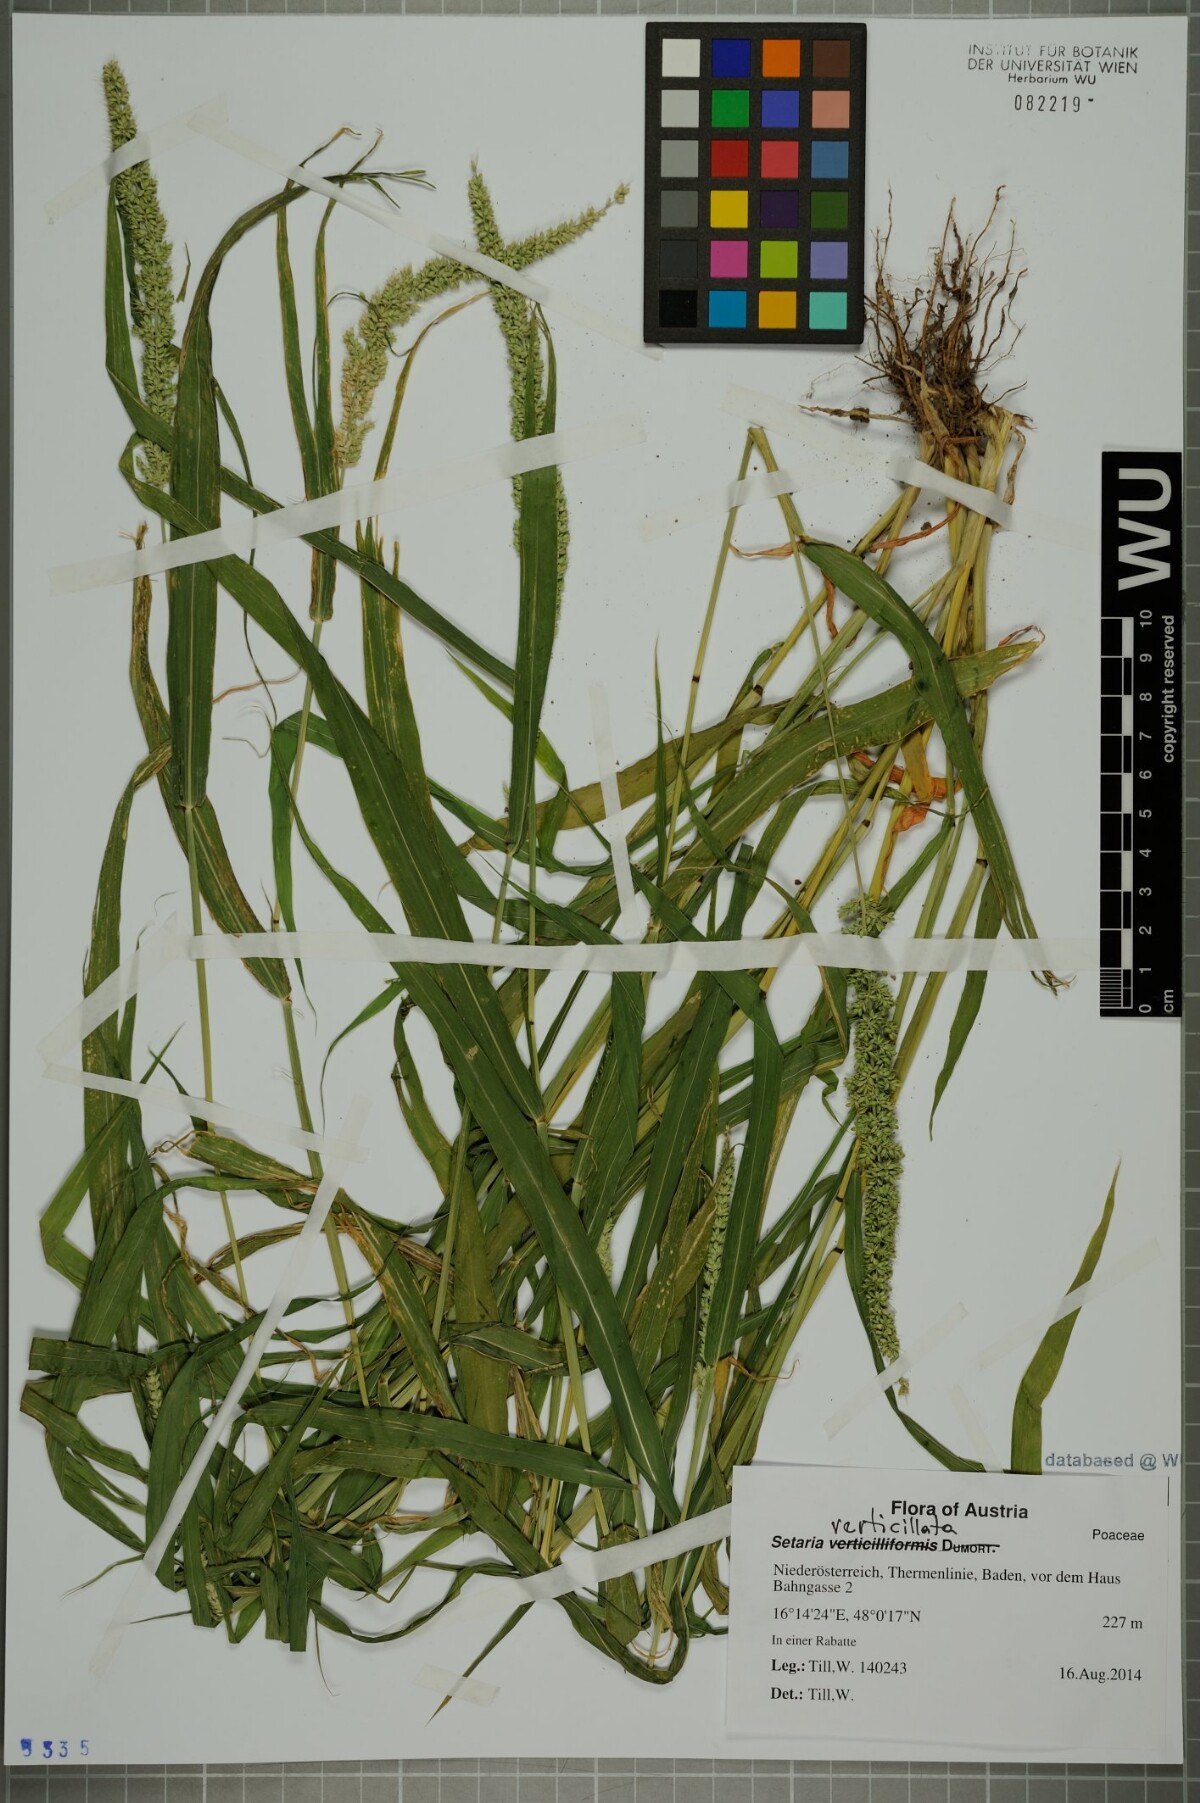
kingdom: Plantae
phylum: Tracheophyta
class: Liliopsida
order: Poales
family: Poaceae
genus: Setaria
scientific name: Setaria verticillata
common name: Hooked bristlegrass
